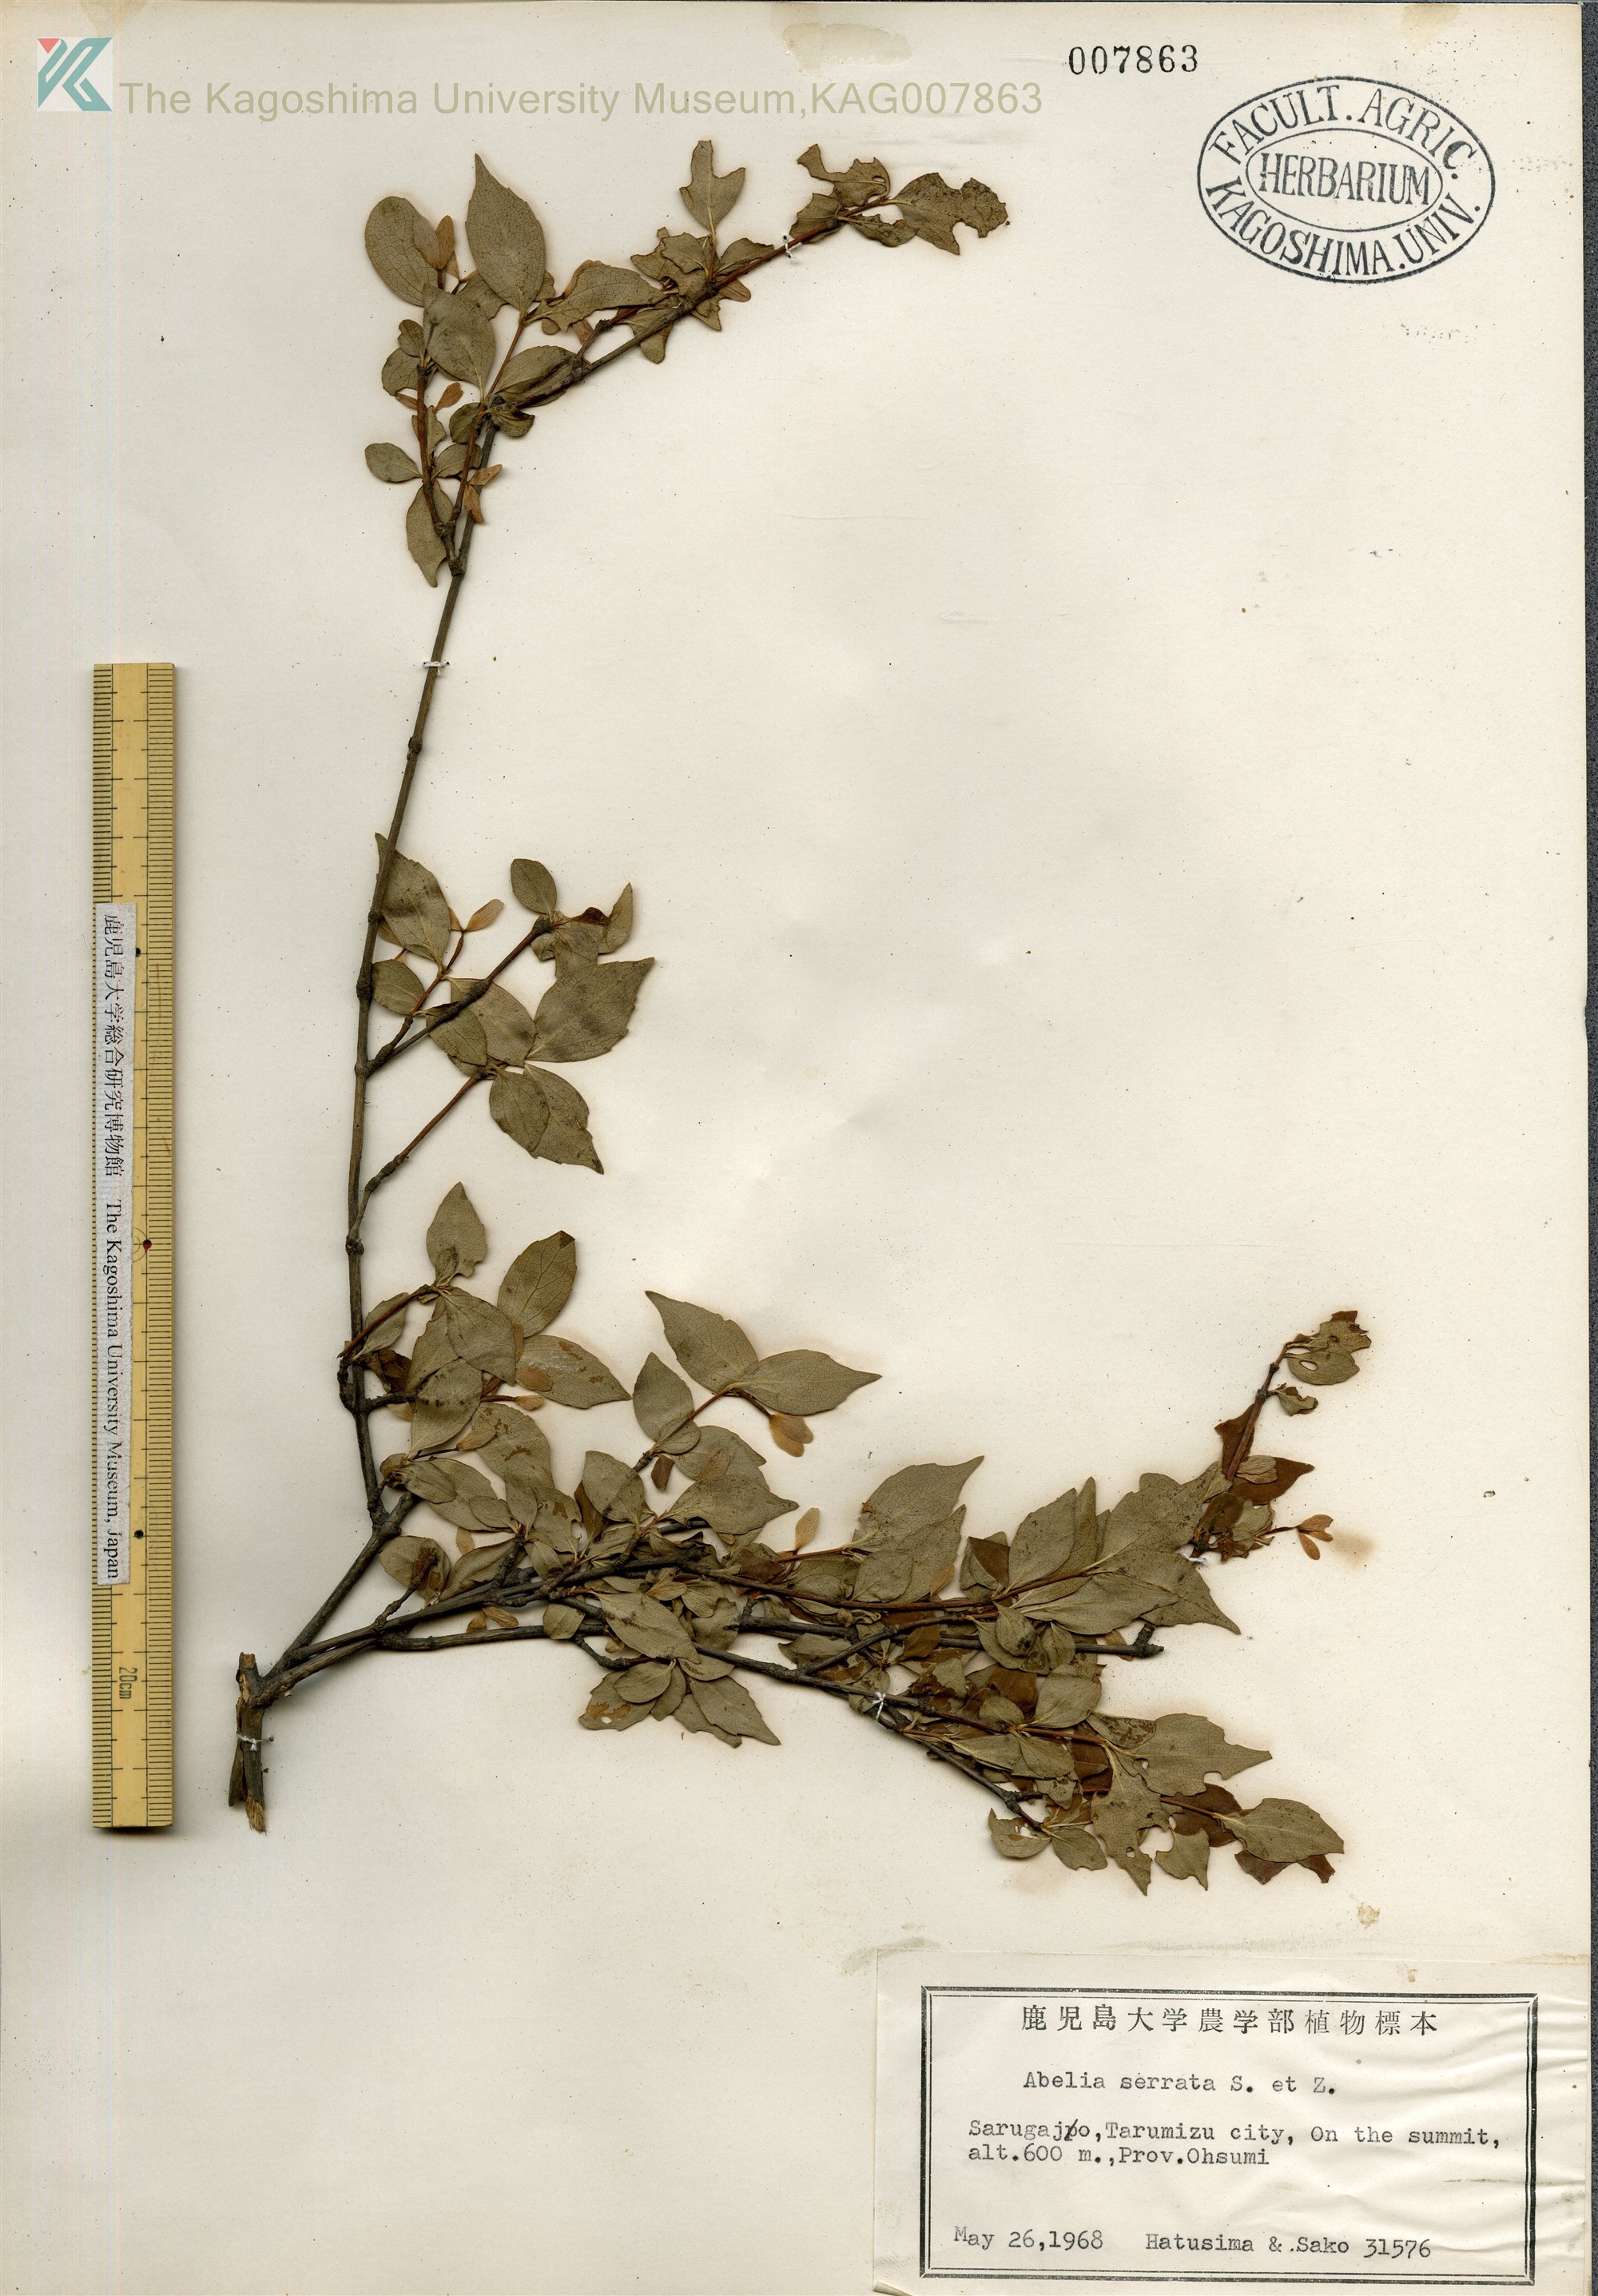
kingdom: Plantae
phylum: Tracheophyta
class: Magnoliopsida
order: Dipsacales
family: Caprifoliaceae
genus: Diabelia
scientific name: Diabelia serrata
